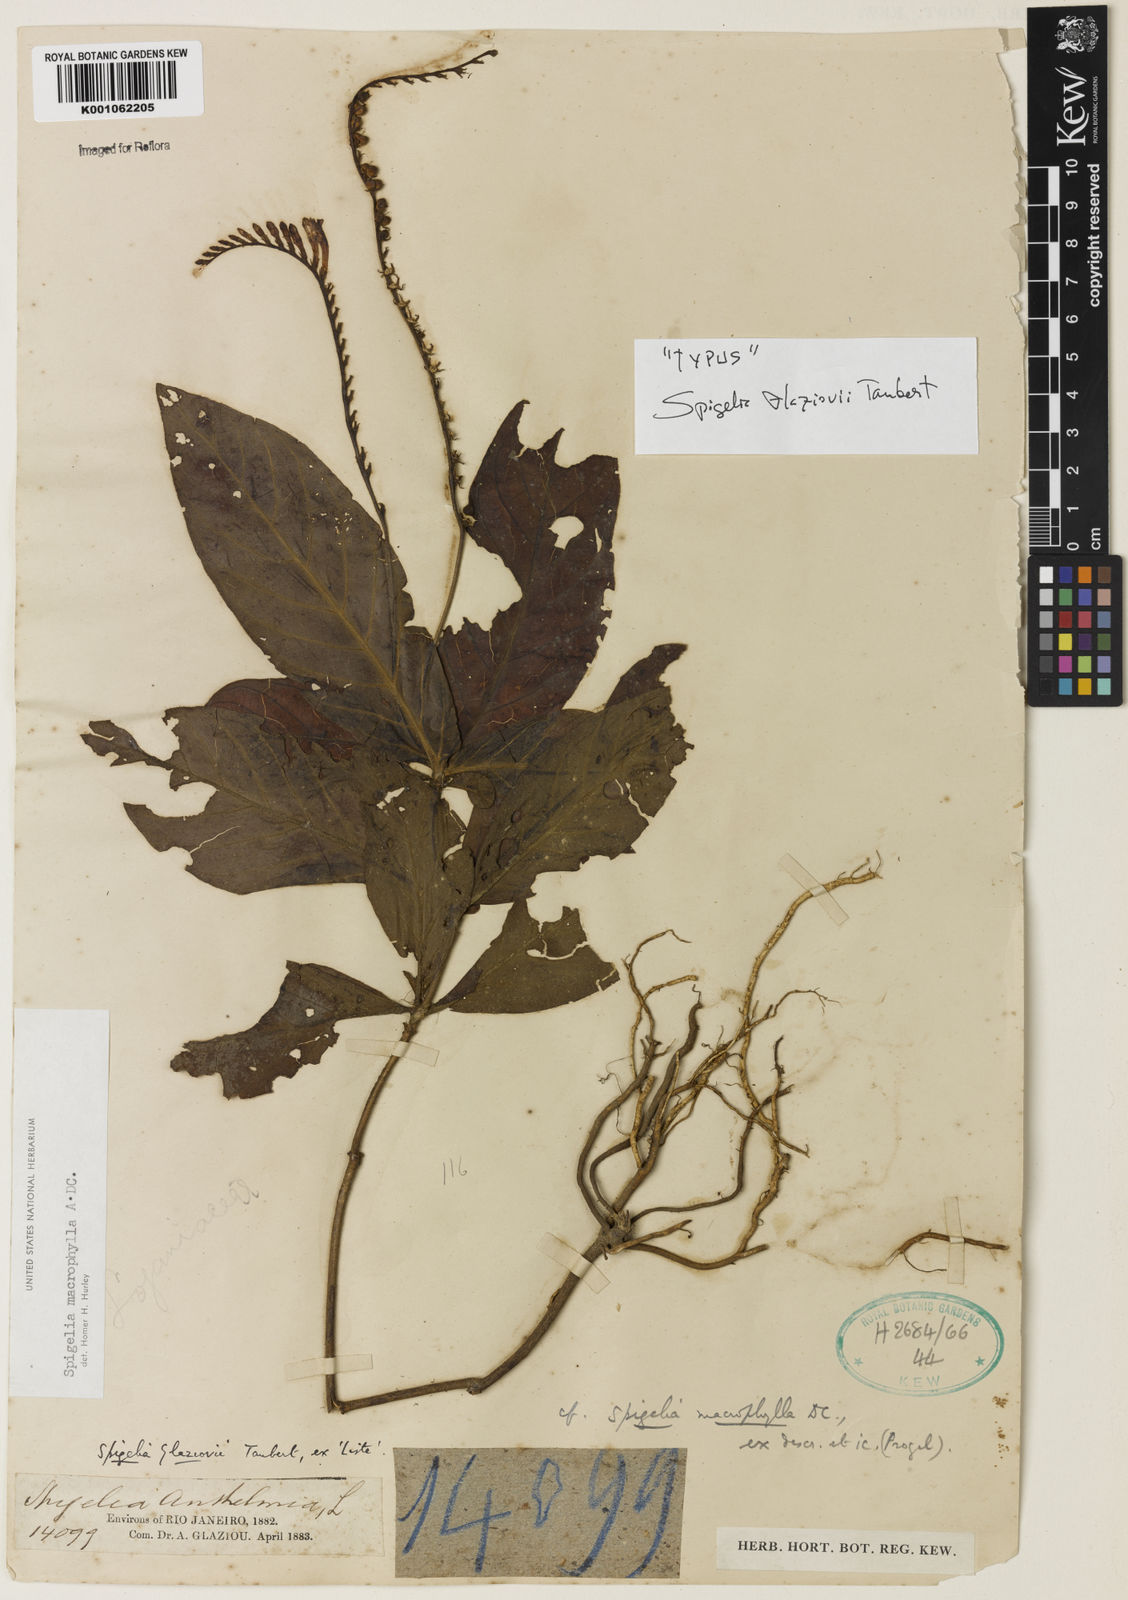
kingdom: Plantae
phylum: Tracheophyta
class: Magnoliopsida
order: Gentianales
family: Loganiaceae
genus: Spigelia
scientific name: Spigelia macrophylla
